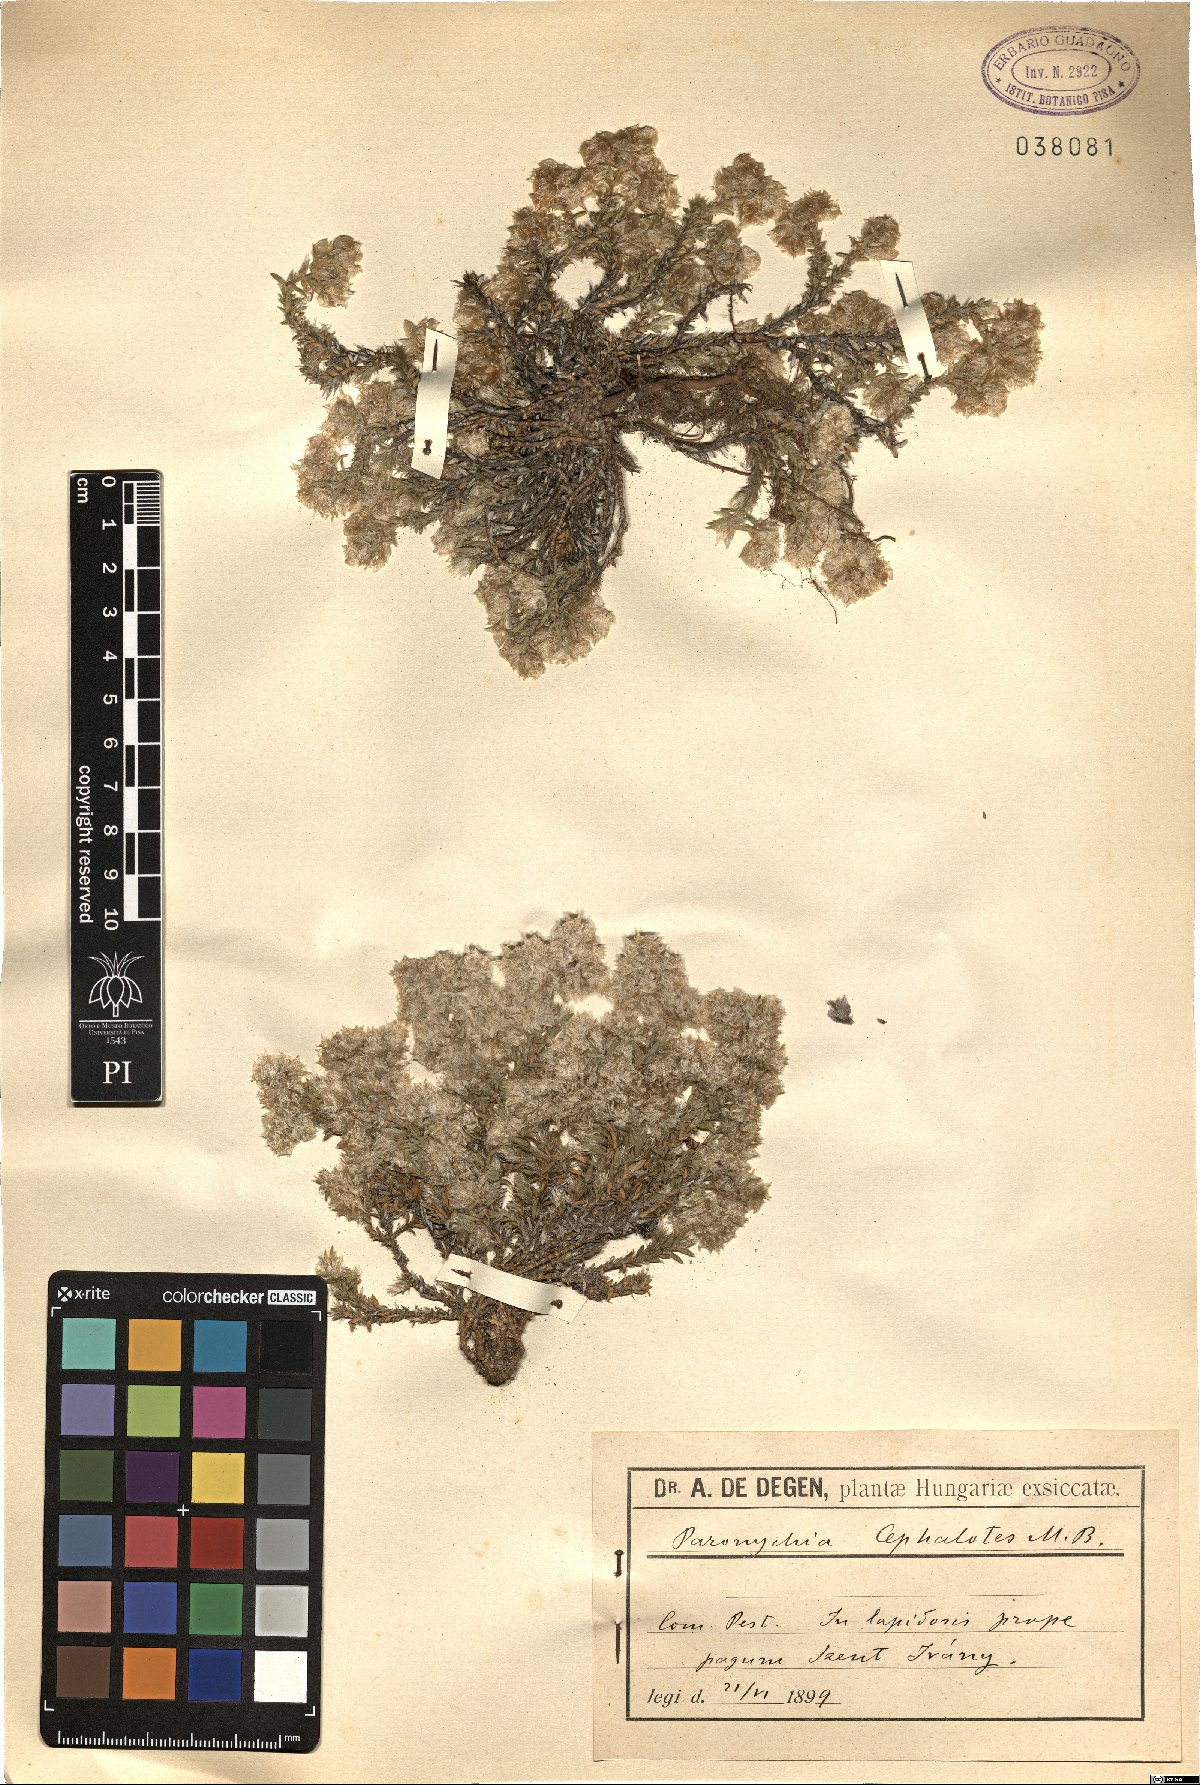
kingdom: Plantae
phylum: Tracheophyta
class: Magnoliopsida
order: Caryophyllales
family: Caryophyllaceae
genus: Paronychia
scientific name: Paronychia cephalotes
